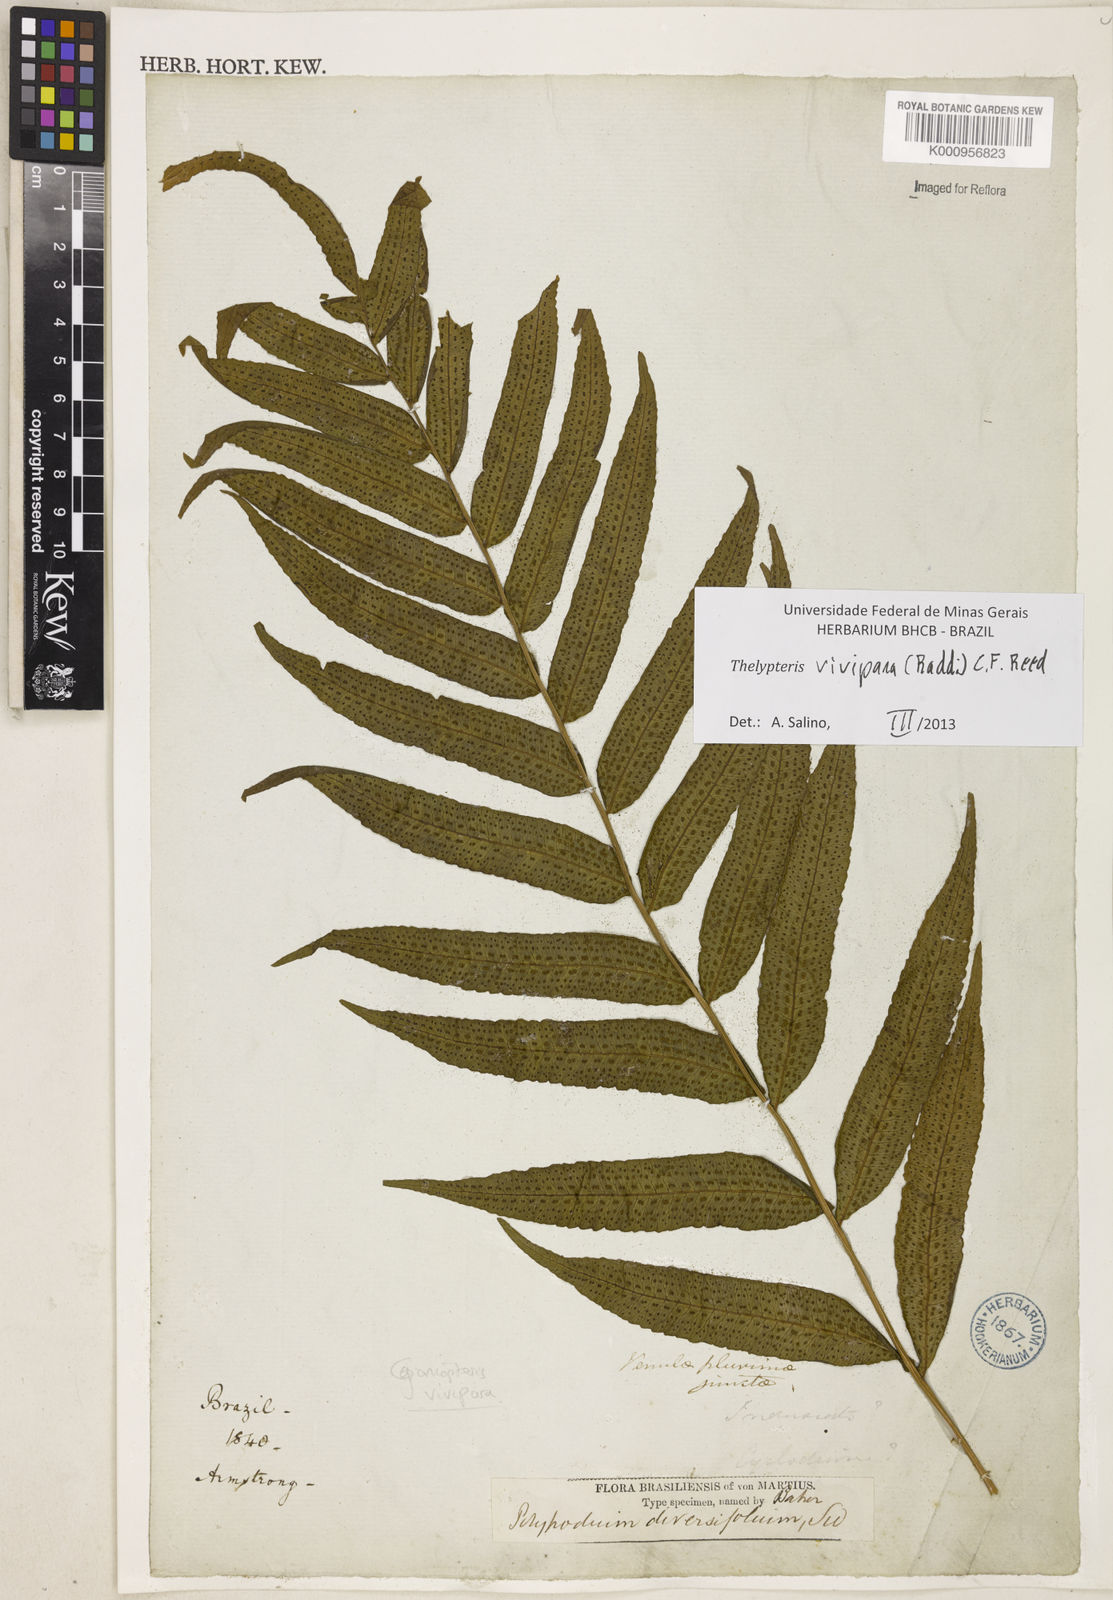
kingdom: Plantae
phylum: Tracheophyta
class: Polypodiopsida
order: Polypodiales
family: Thelypteridaceae
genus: Goniopteris
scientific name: Goniopteris vivipara
